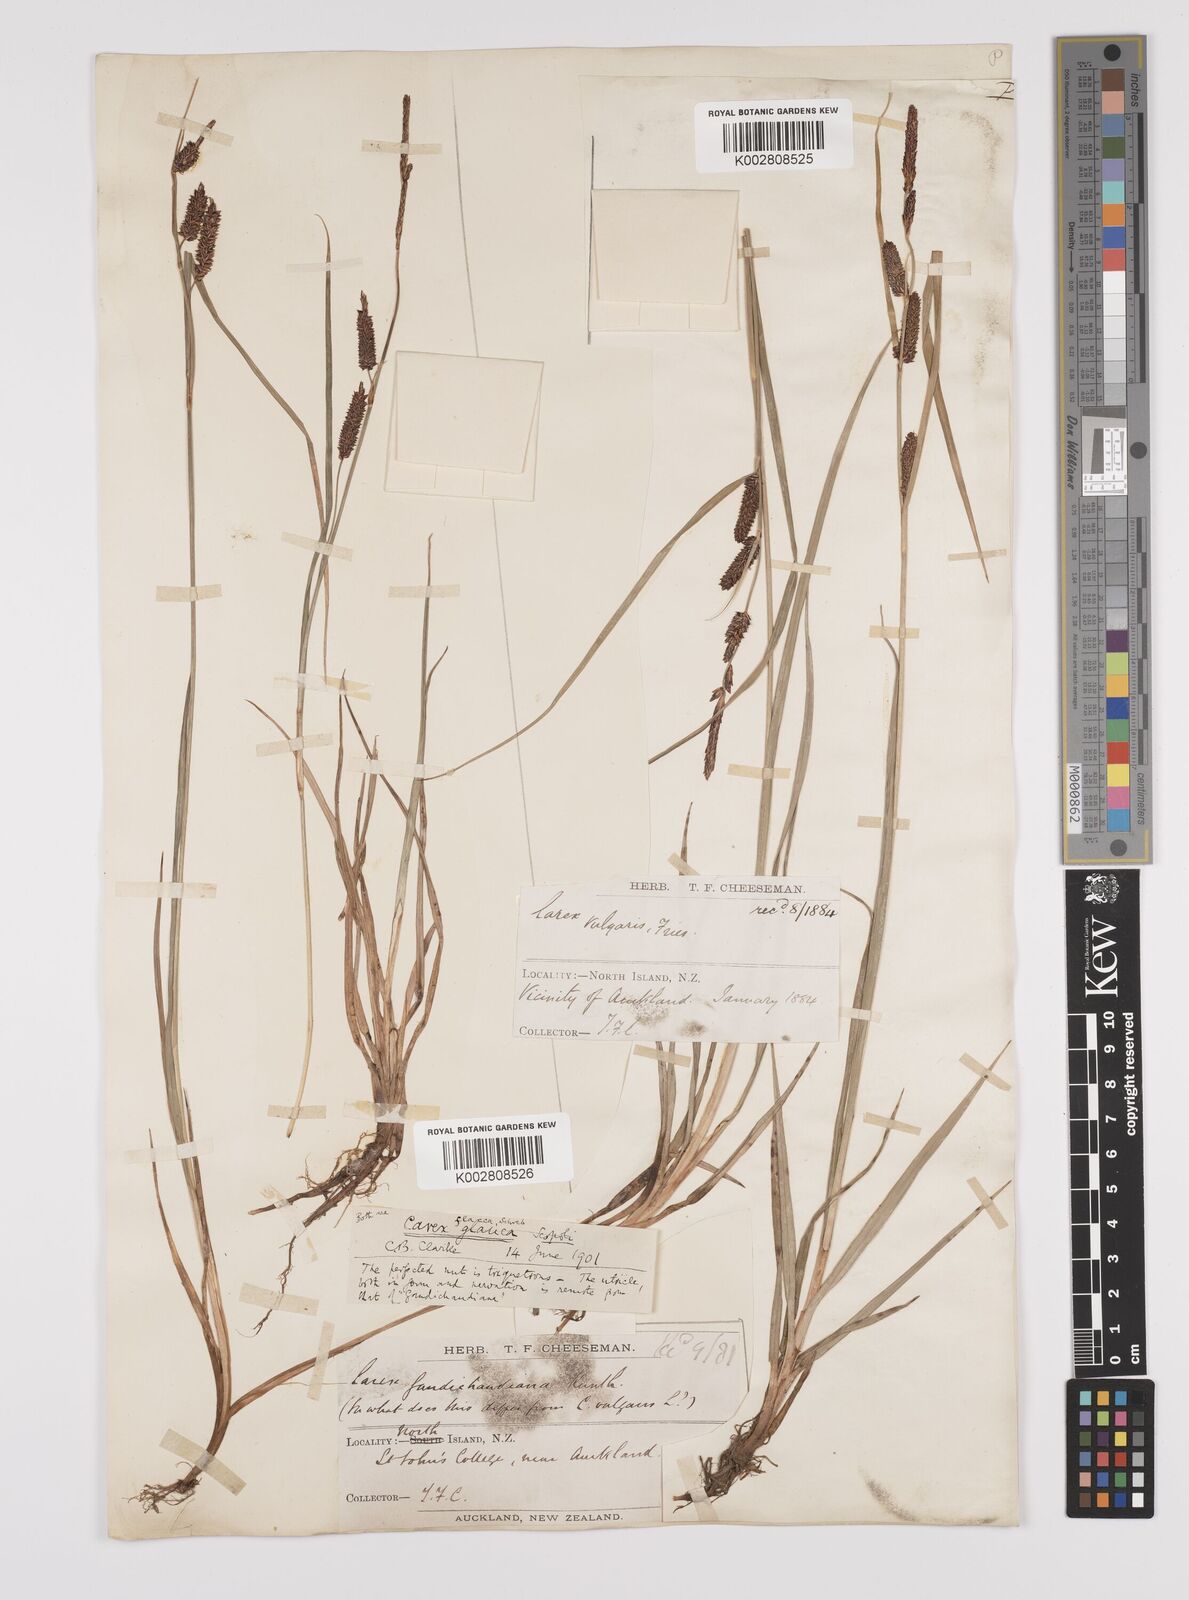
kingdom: Plantae
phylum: Tracheophyta
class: Liliopsida
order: Poales
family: Cyperaceae
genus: Carex
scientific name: Carex flacca
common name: Glaucous sedge
